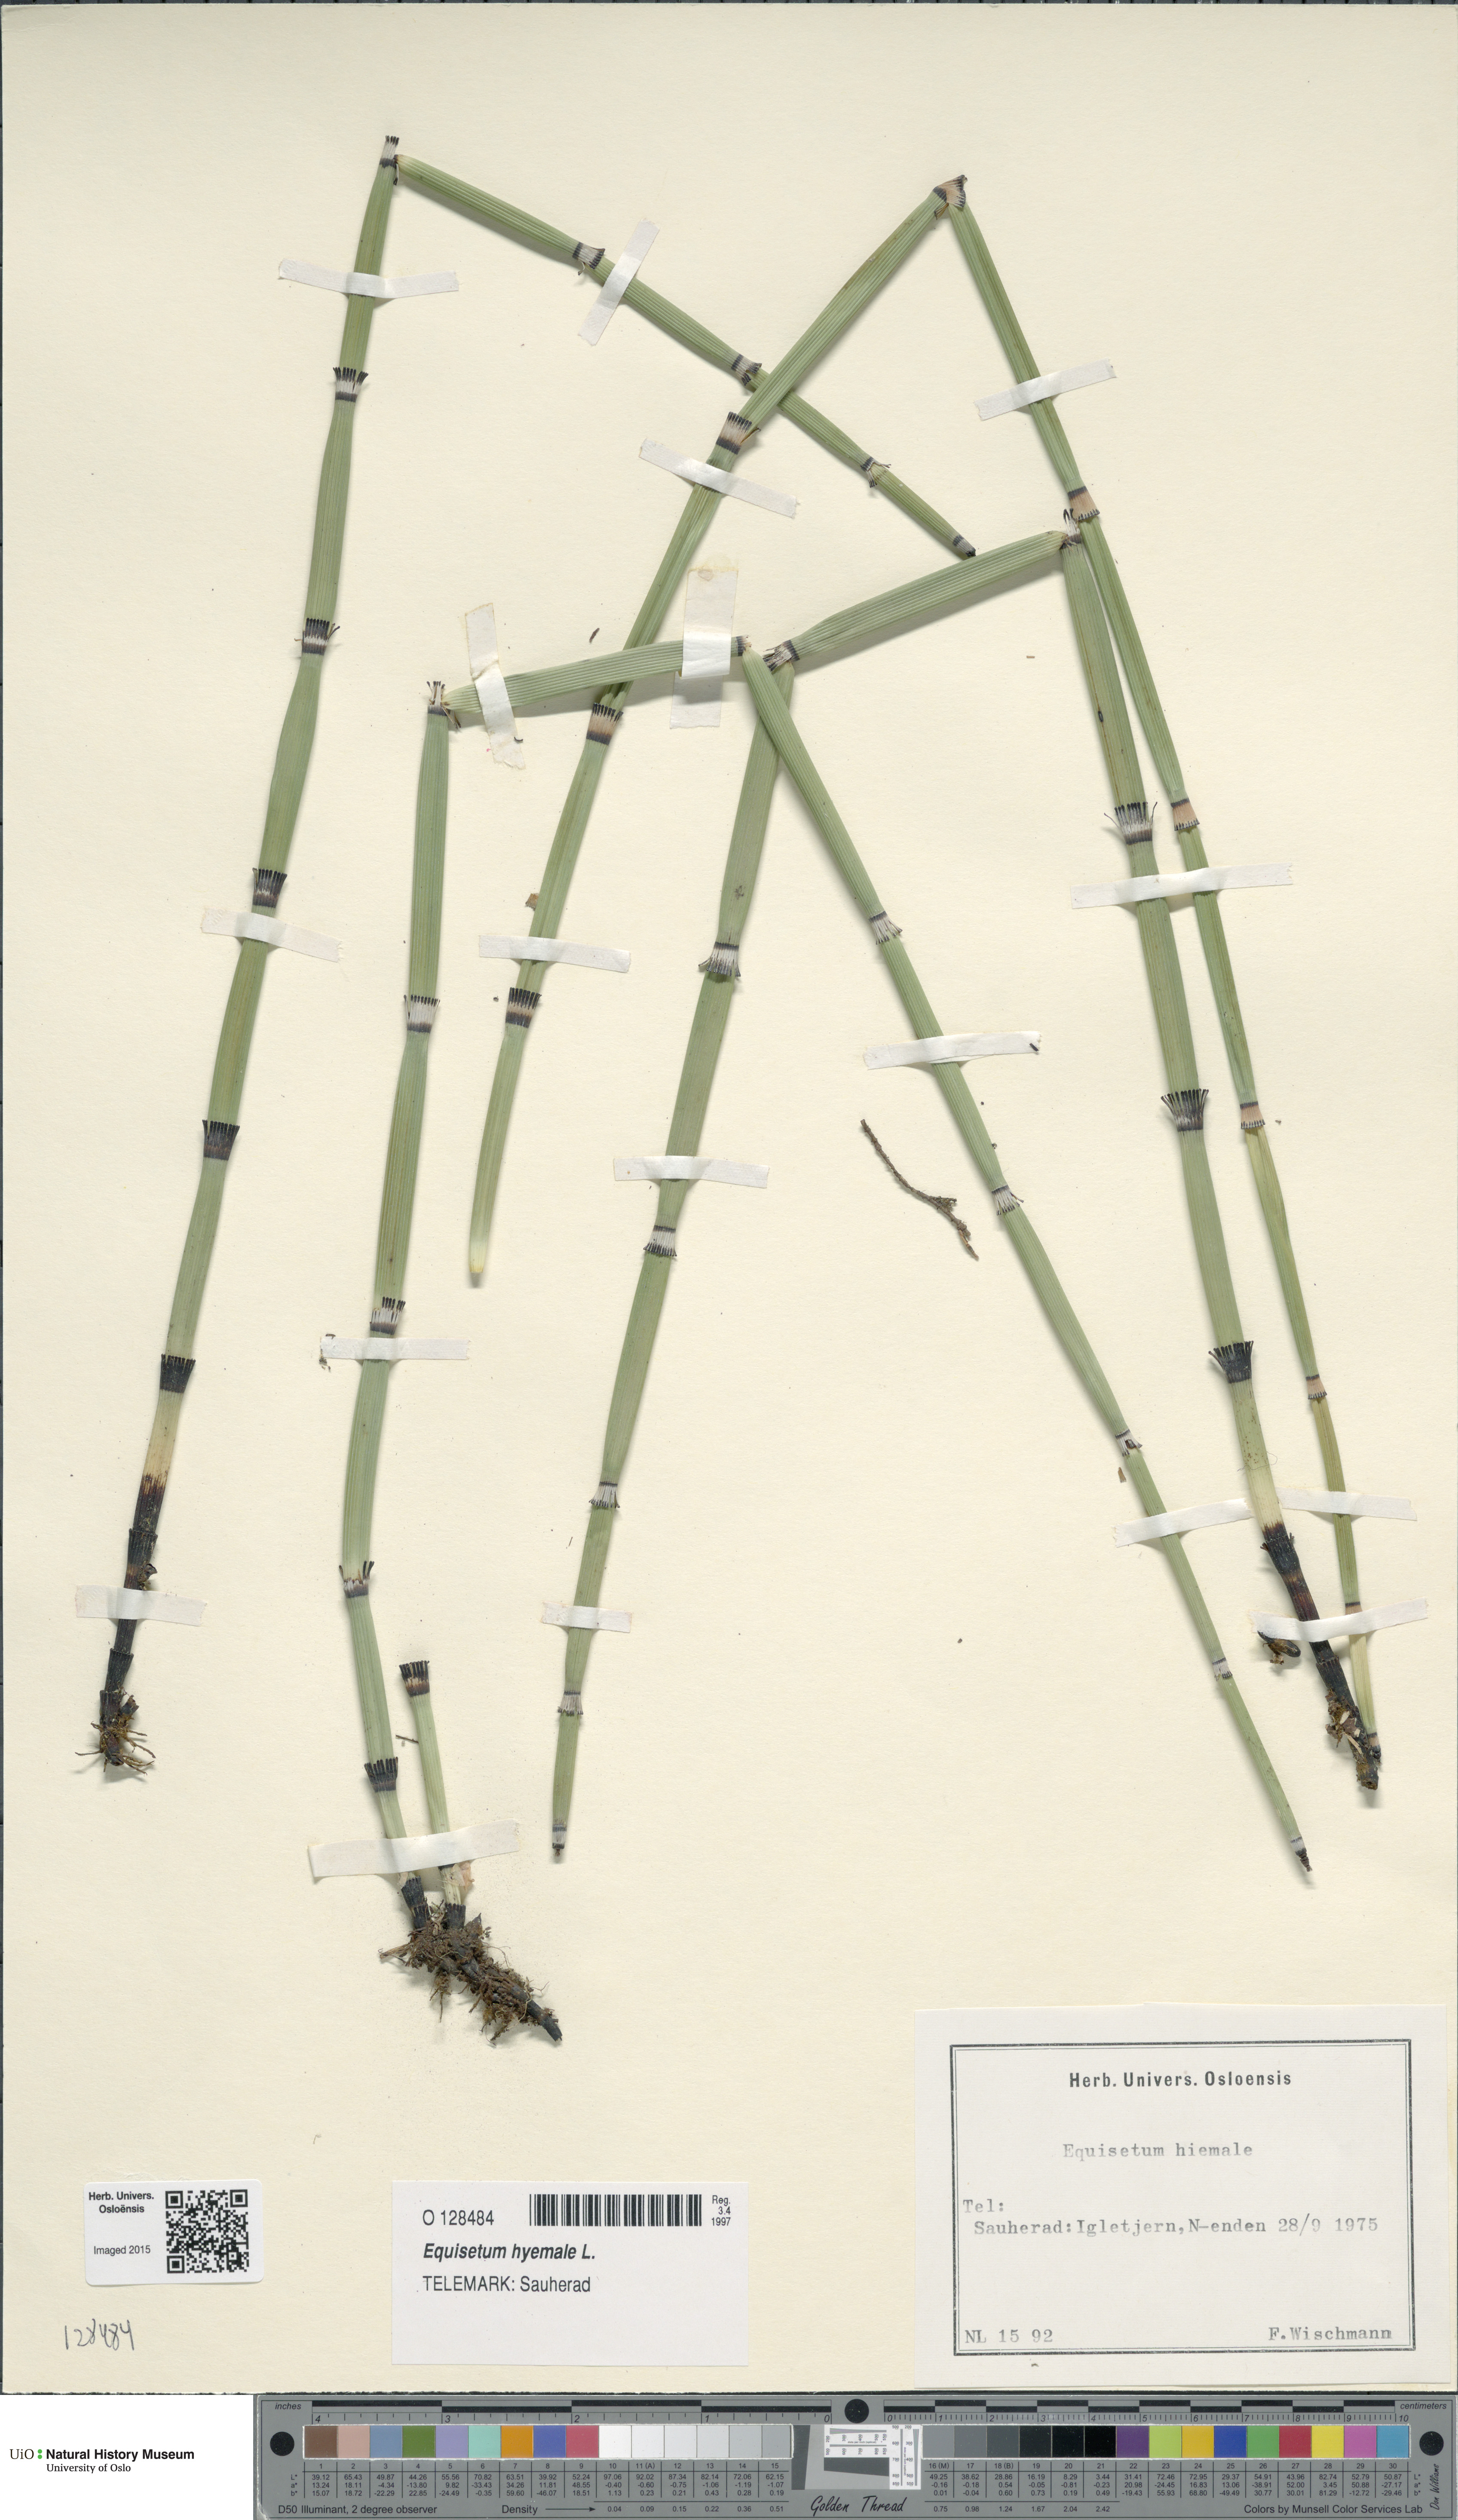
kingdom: Plantae
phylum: Tracheophyta
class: Polypodiopsida
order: Equisetales
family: Equisetaceae
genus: Equisetum
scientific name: Equisetum hyemale
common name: Rough horsetail
